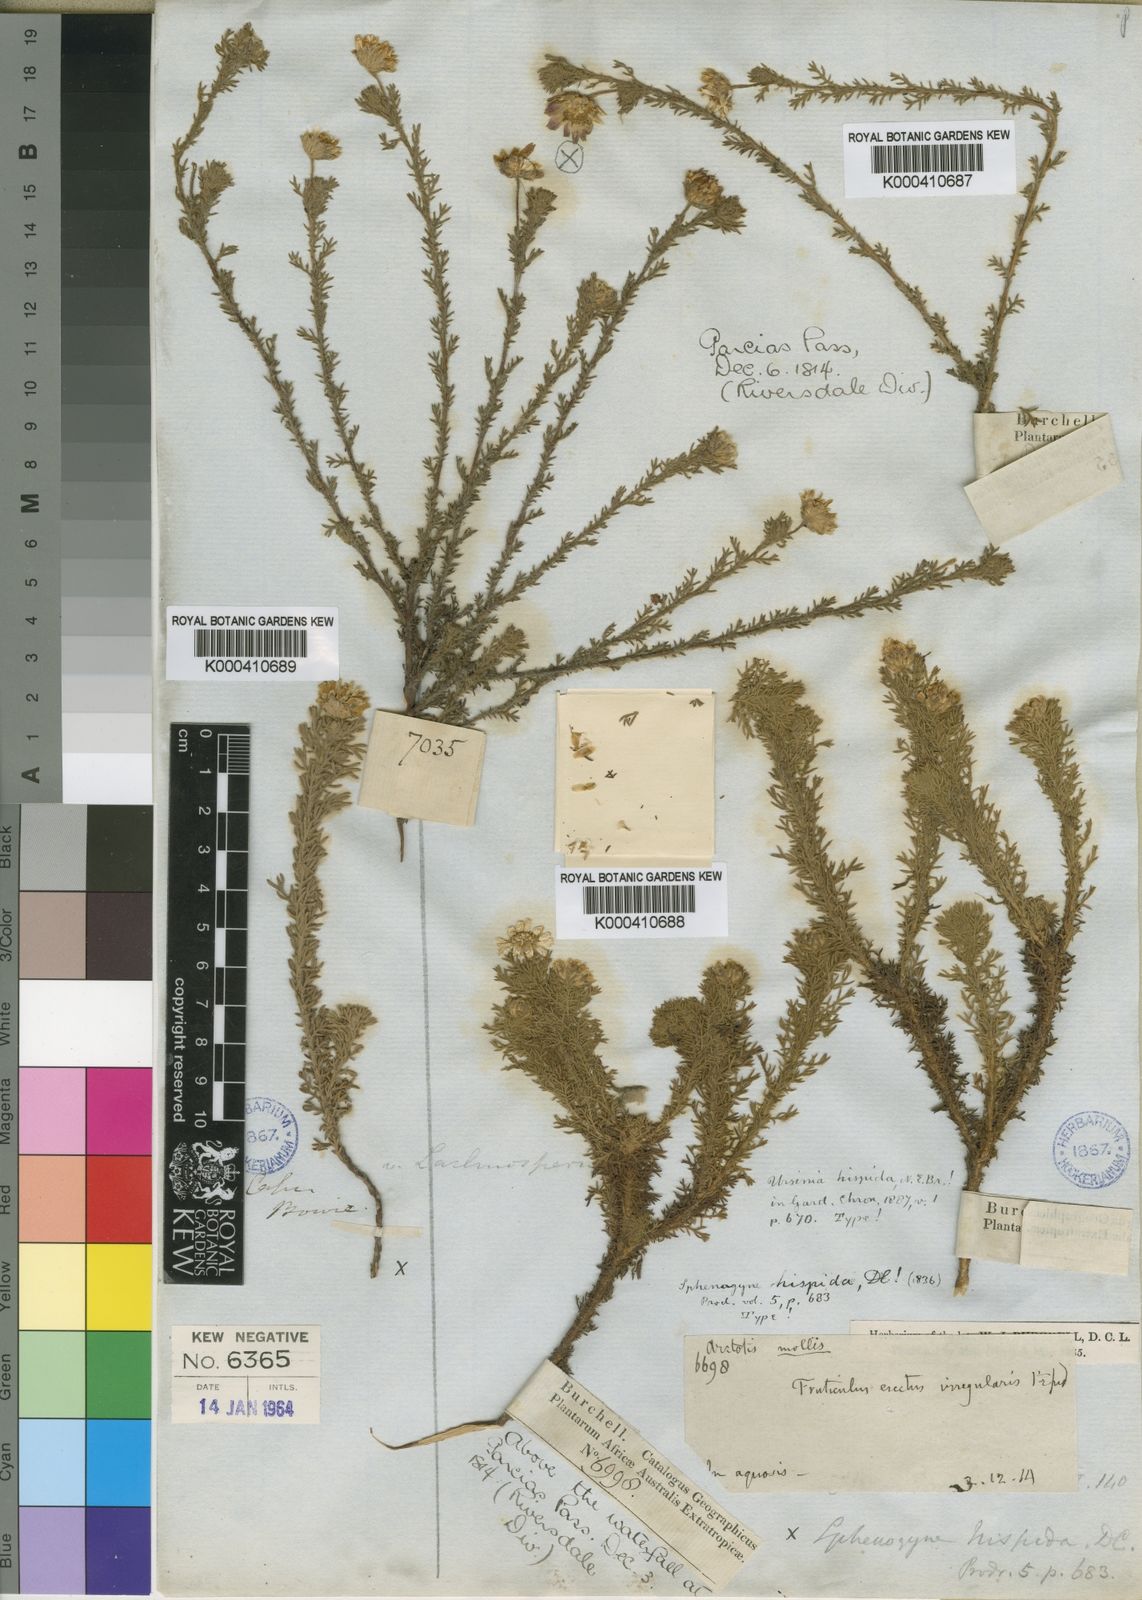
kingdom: Plantae
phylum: Tracheophyta
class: Magnoliopsida
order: Asterales
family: Asteraceae
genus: Ursinia
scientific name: Ursinia hispida
